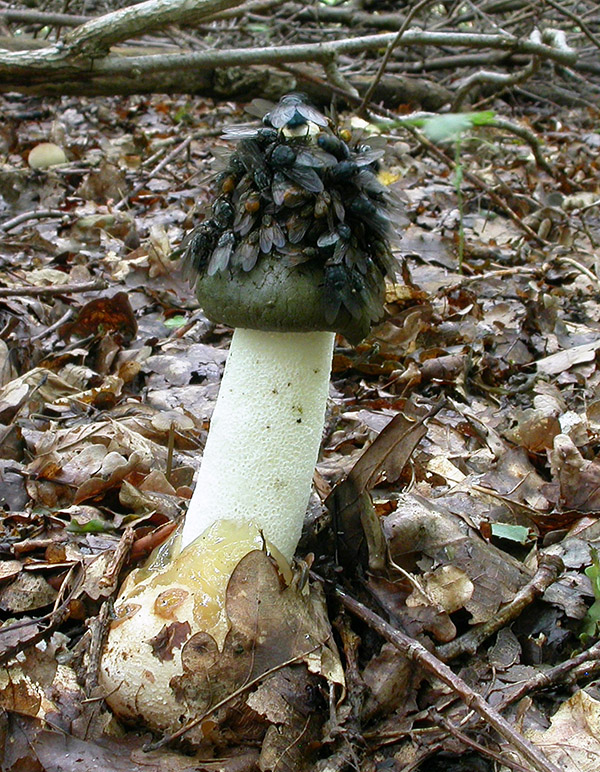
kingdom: Fungi
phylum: Basidiomycota
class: Agaricomycetes
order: Phallales
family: Phallaceae
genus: Phallus
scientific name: Phallus impudicus
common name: almindelig stinksvamp
